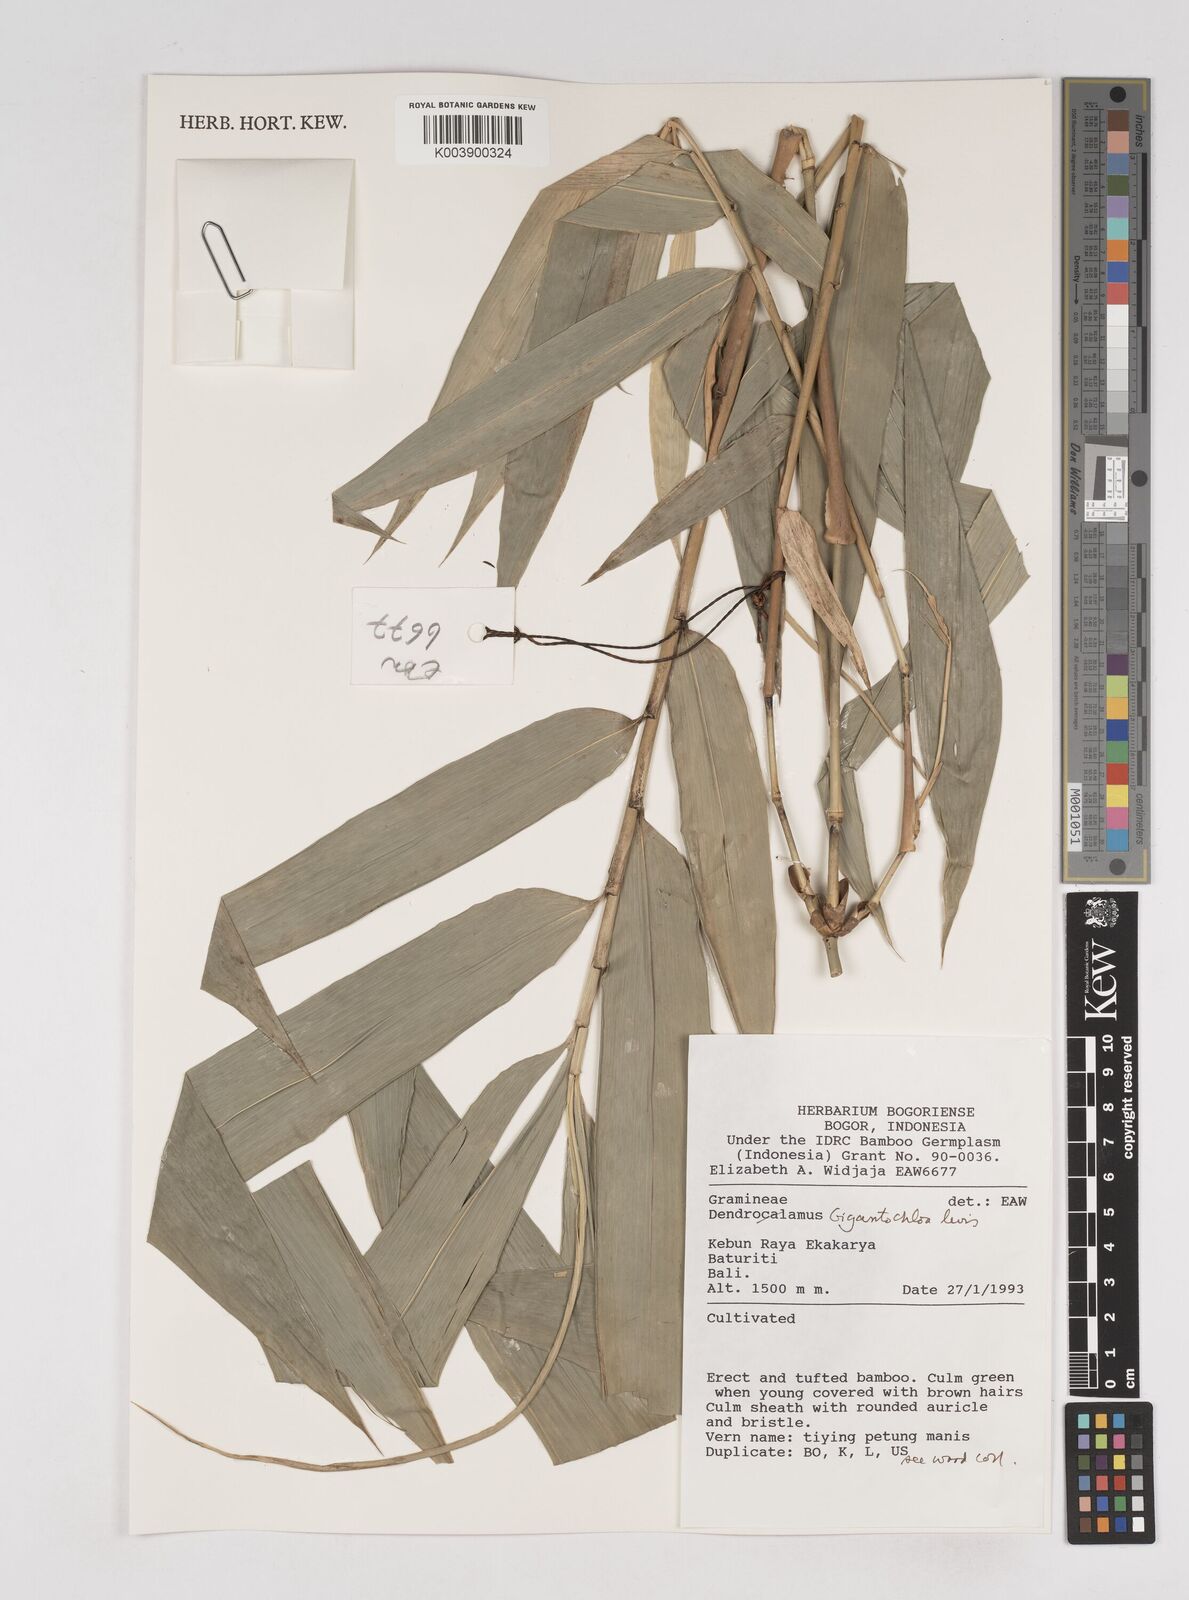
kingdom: Plantae
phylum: Tracheophyta
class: Liliopsida
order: Poales
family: Poaceae
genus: Gigantochloa
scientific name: Gigantochloa
